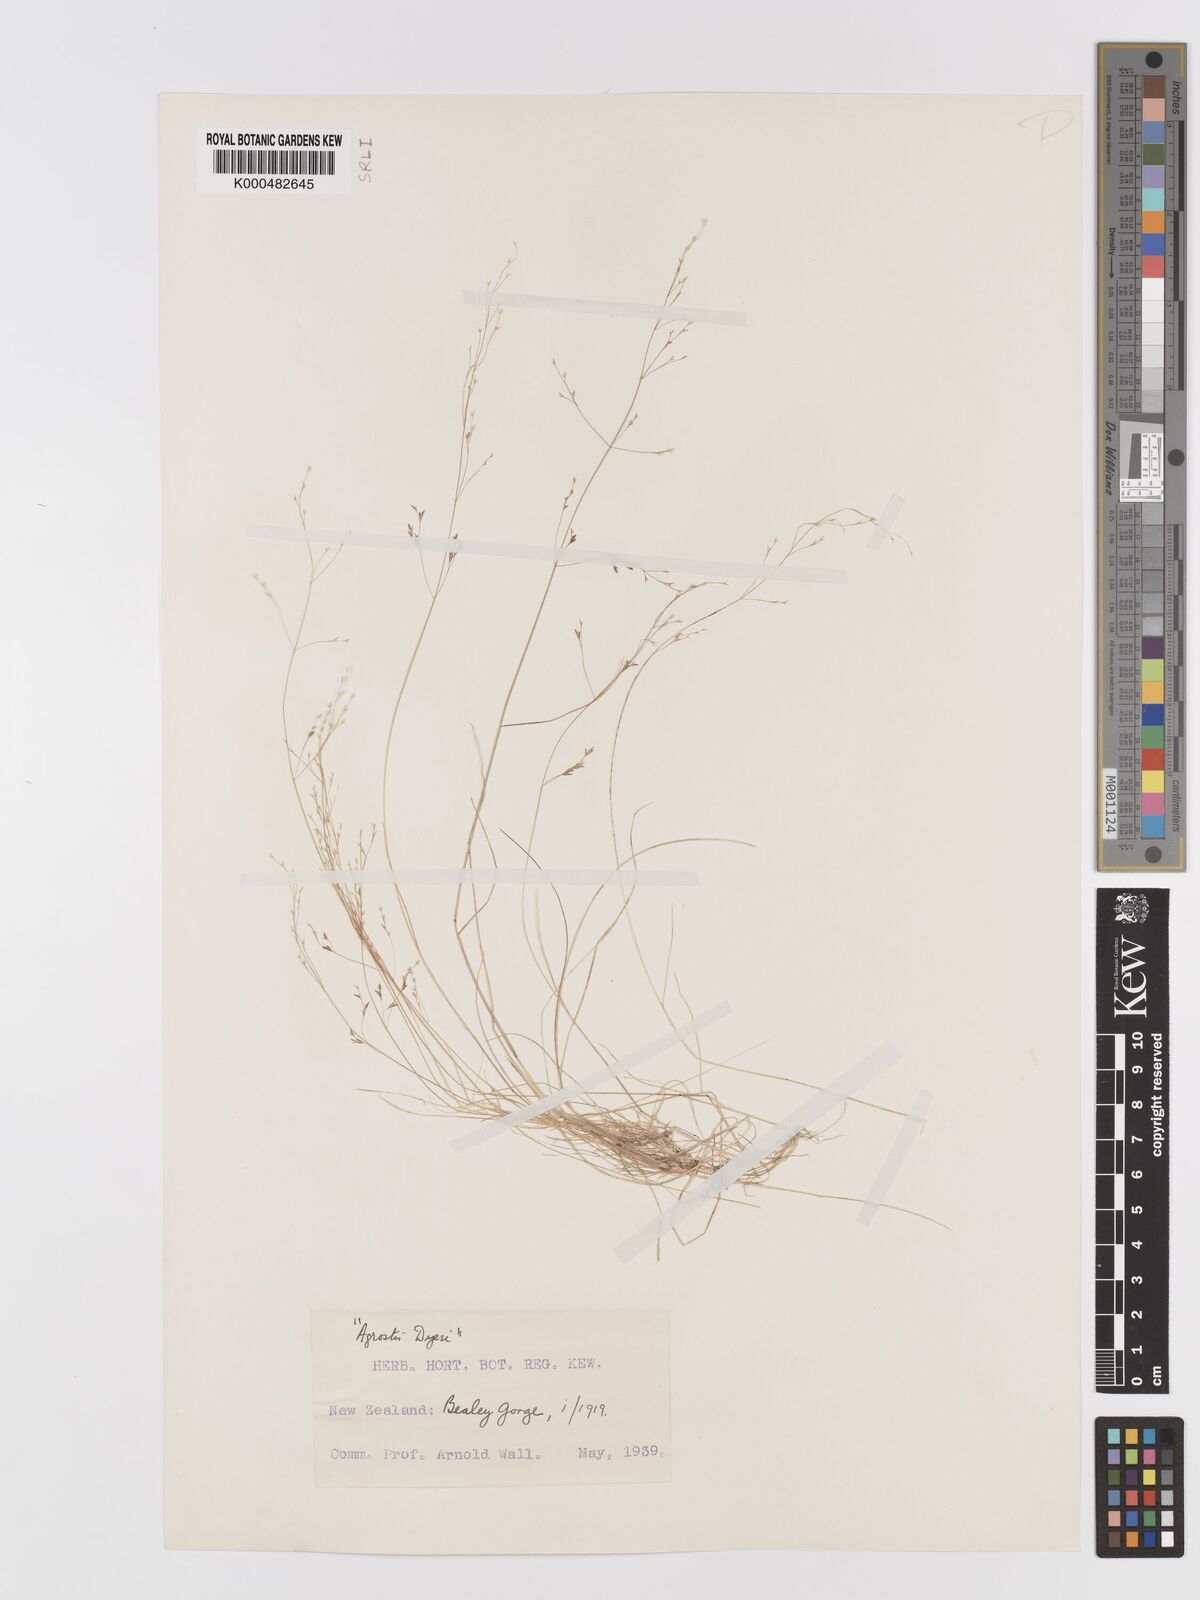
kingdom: Plantae
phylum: Tracheophyta
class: Liliopsida
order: Poales
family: Poaceae
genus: Agrostis
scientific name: Agrostis dyeri
